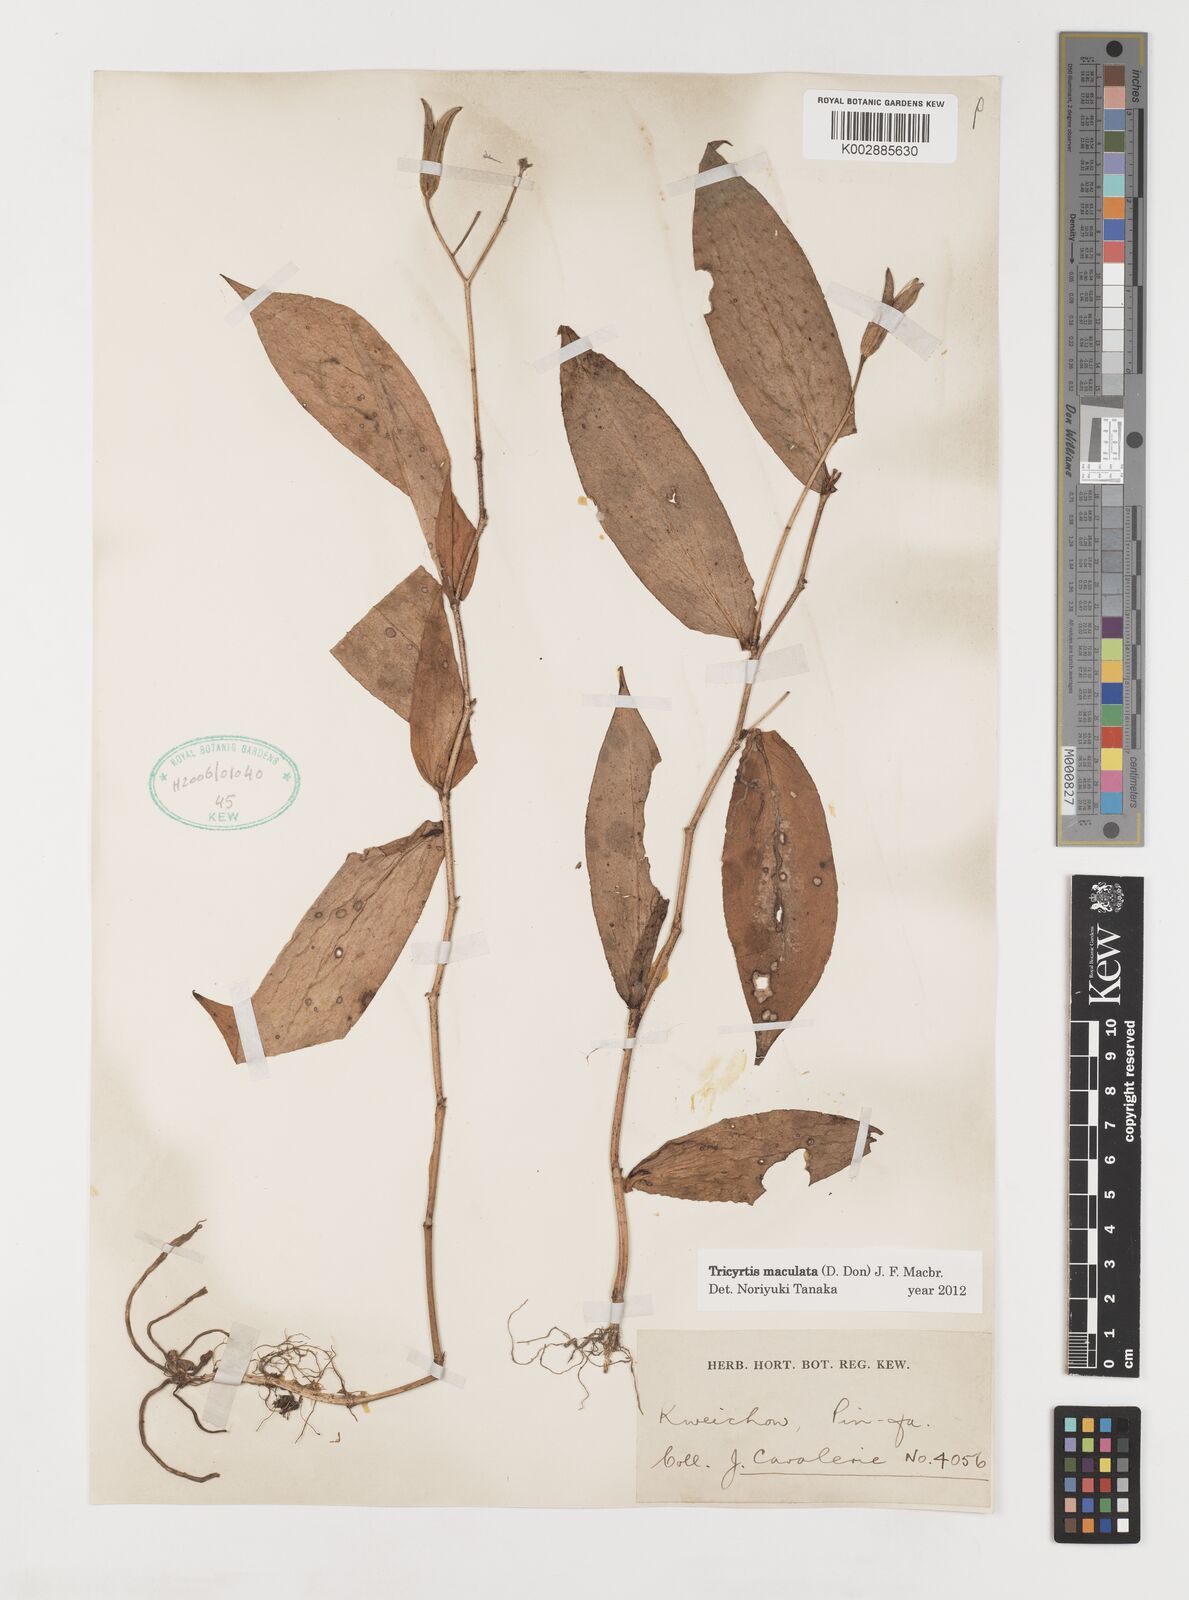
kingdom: Plantae
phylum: Tracheophyta
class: Liliopsida
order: Liliales
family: Liliaceae
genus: Tricyrtis
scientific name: Tricyrtis maculata
